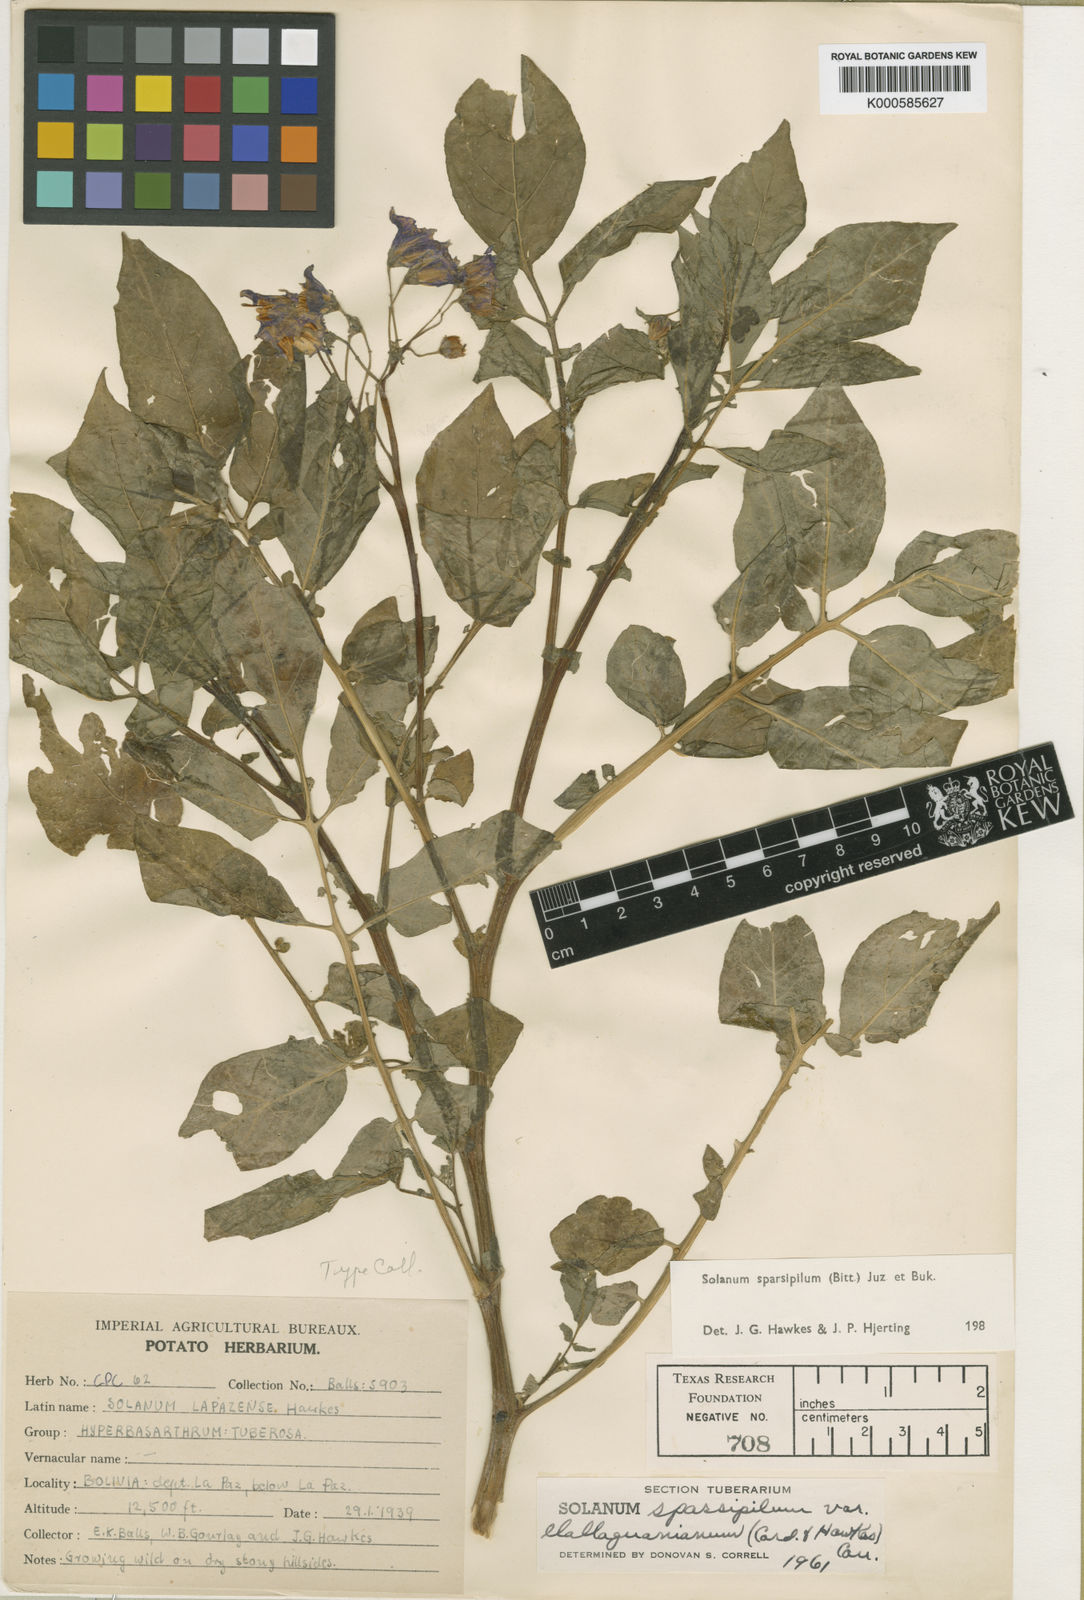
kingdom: Plantae
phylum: Tracheophyta
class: Magnoliopsida
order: Solanales
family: Solanaceae
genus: Solanum
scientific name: Solanum brevicaule
